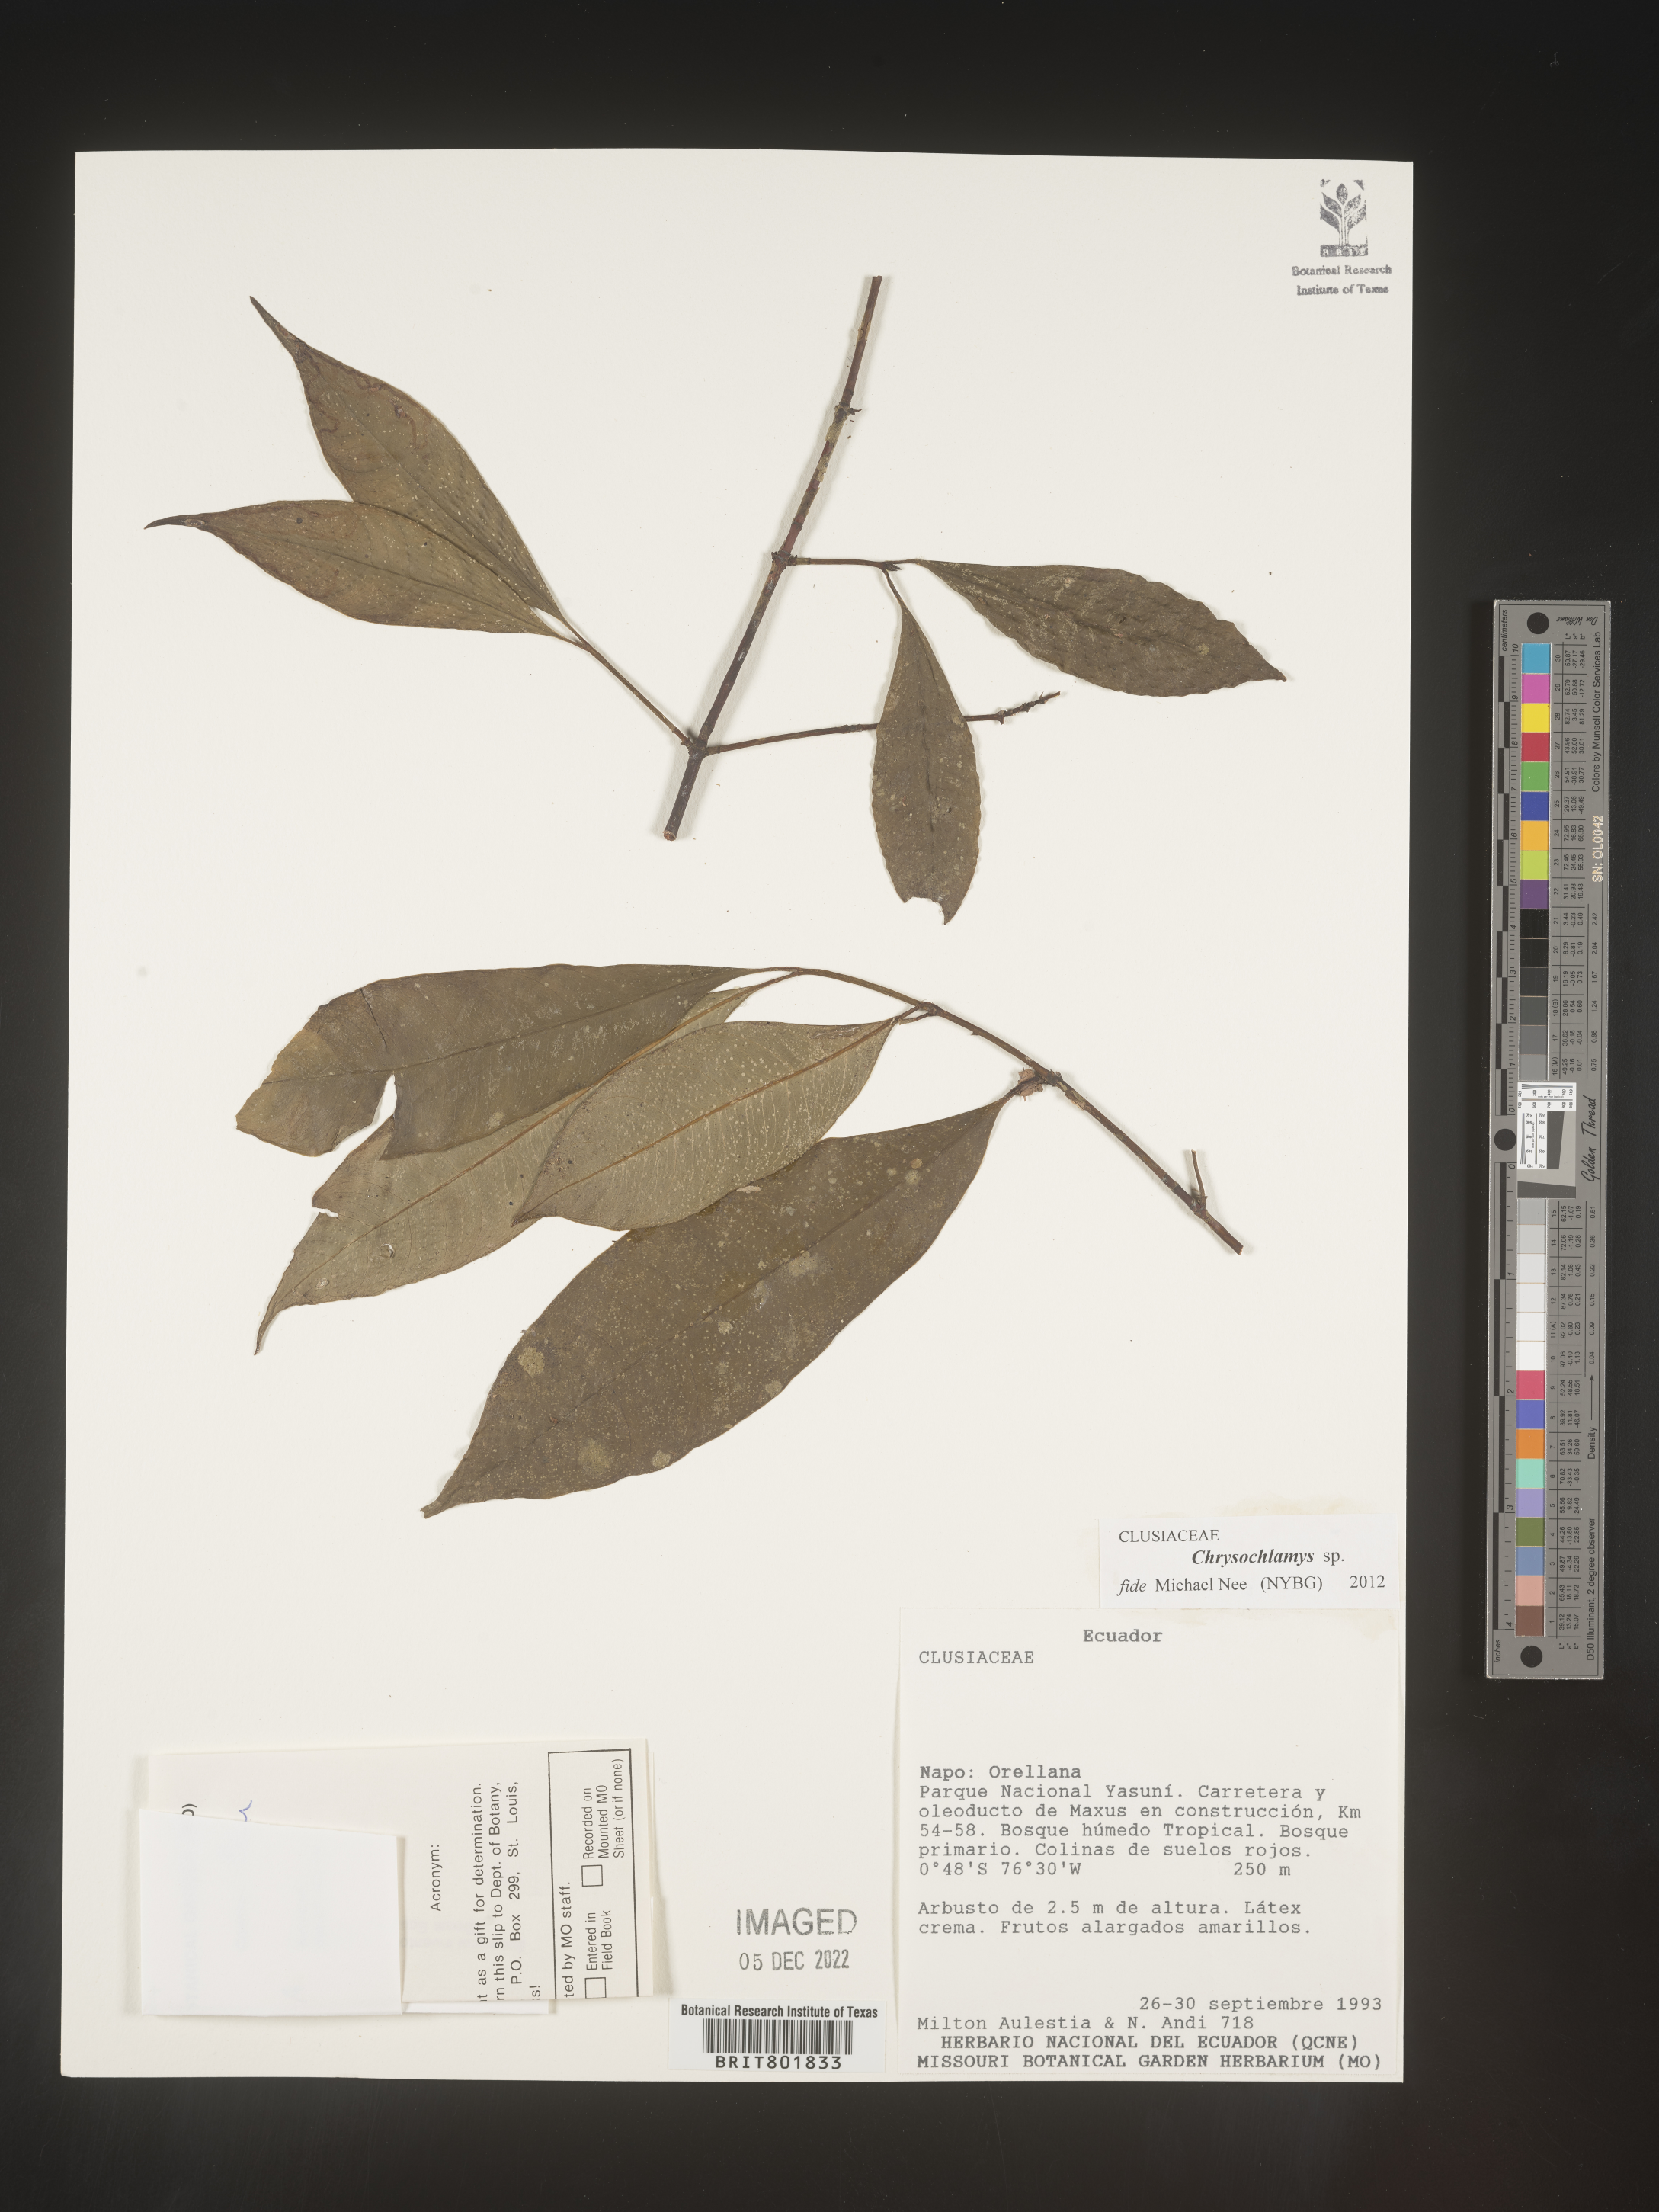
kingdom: Plantae
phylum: Tracheophyta
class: Magnoliopsida
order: Malpighiales
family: Clusiaceae
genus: Chrysochlamys
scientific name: Chrysochlamys
